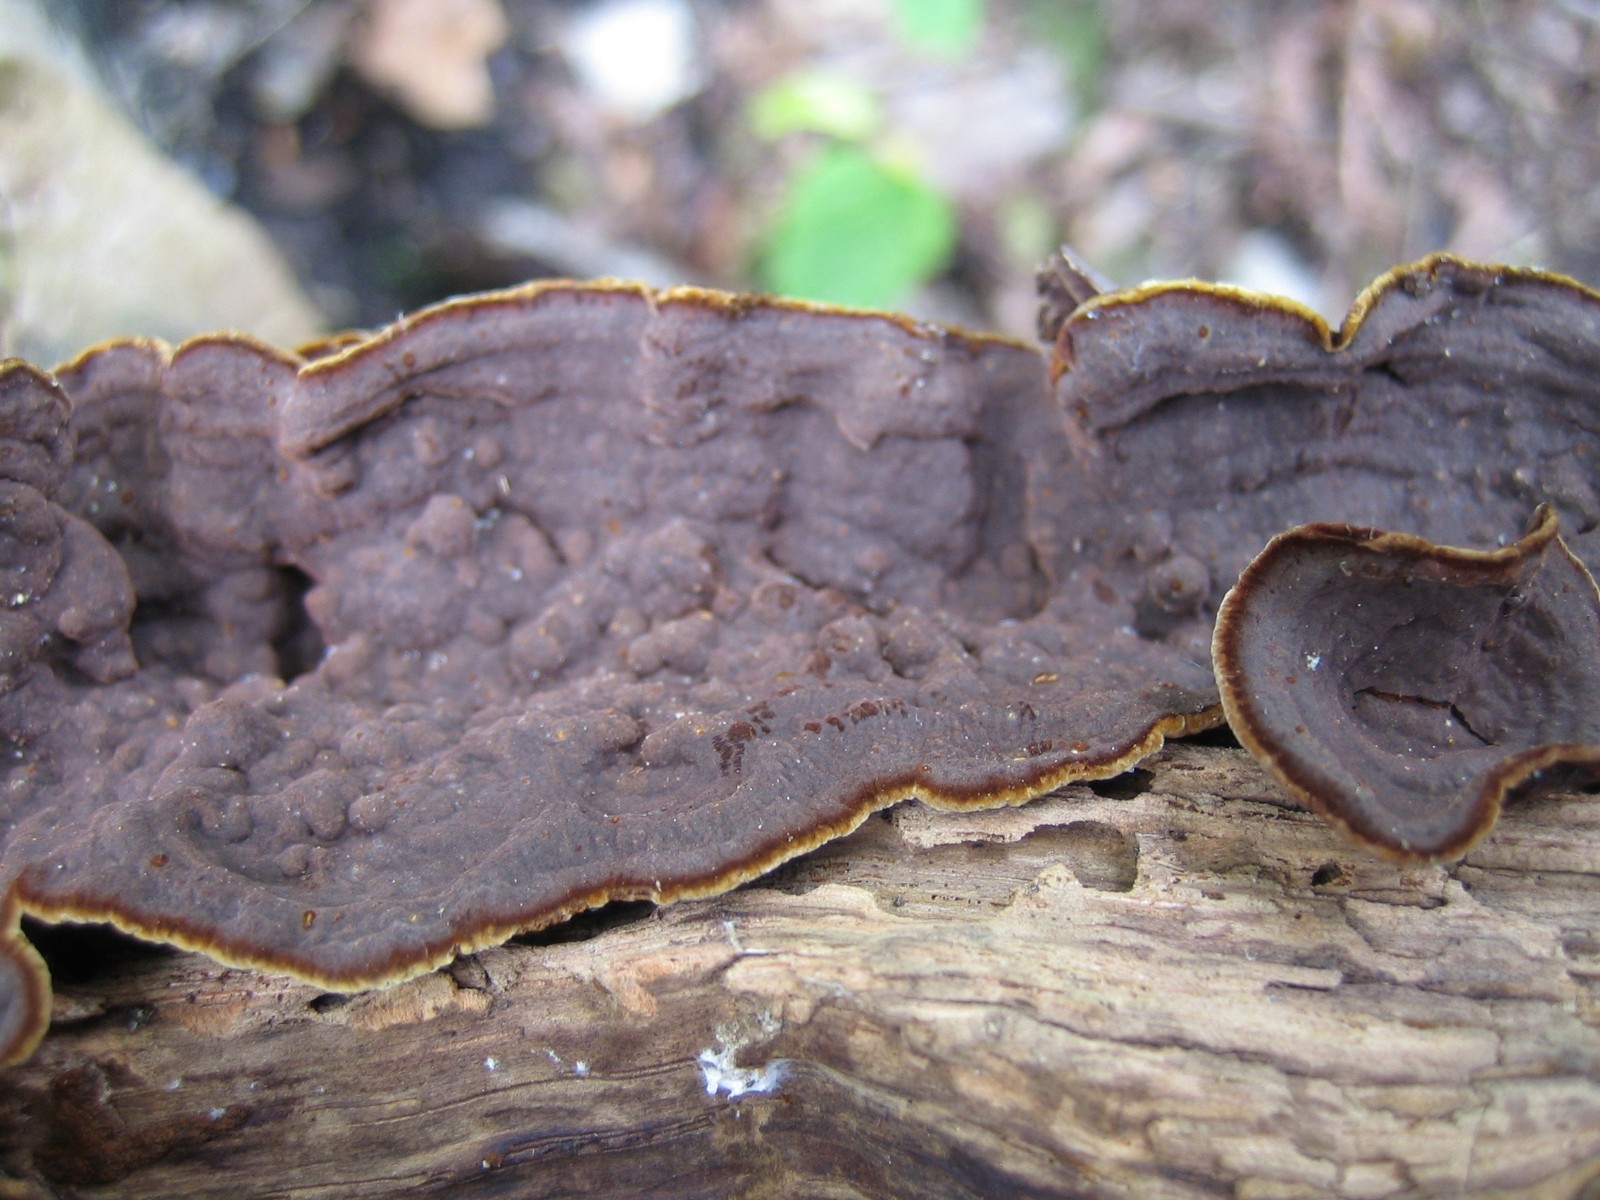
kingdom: Fungi
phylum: Basidiomycota
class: Agaricomycetes
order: Hymenochaetales
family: Hymenochaetaceae
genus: Hymenochaete
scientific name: Hymenochaete rubiginosa
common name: stiv ruslædersvamp
